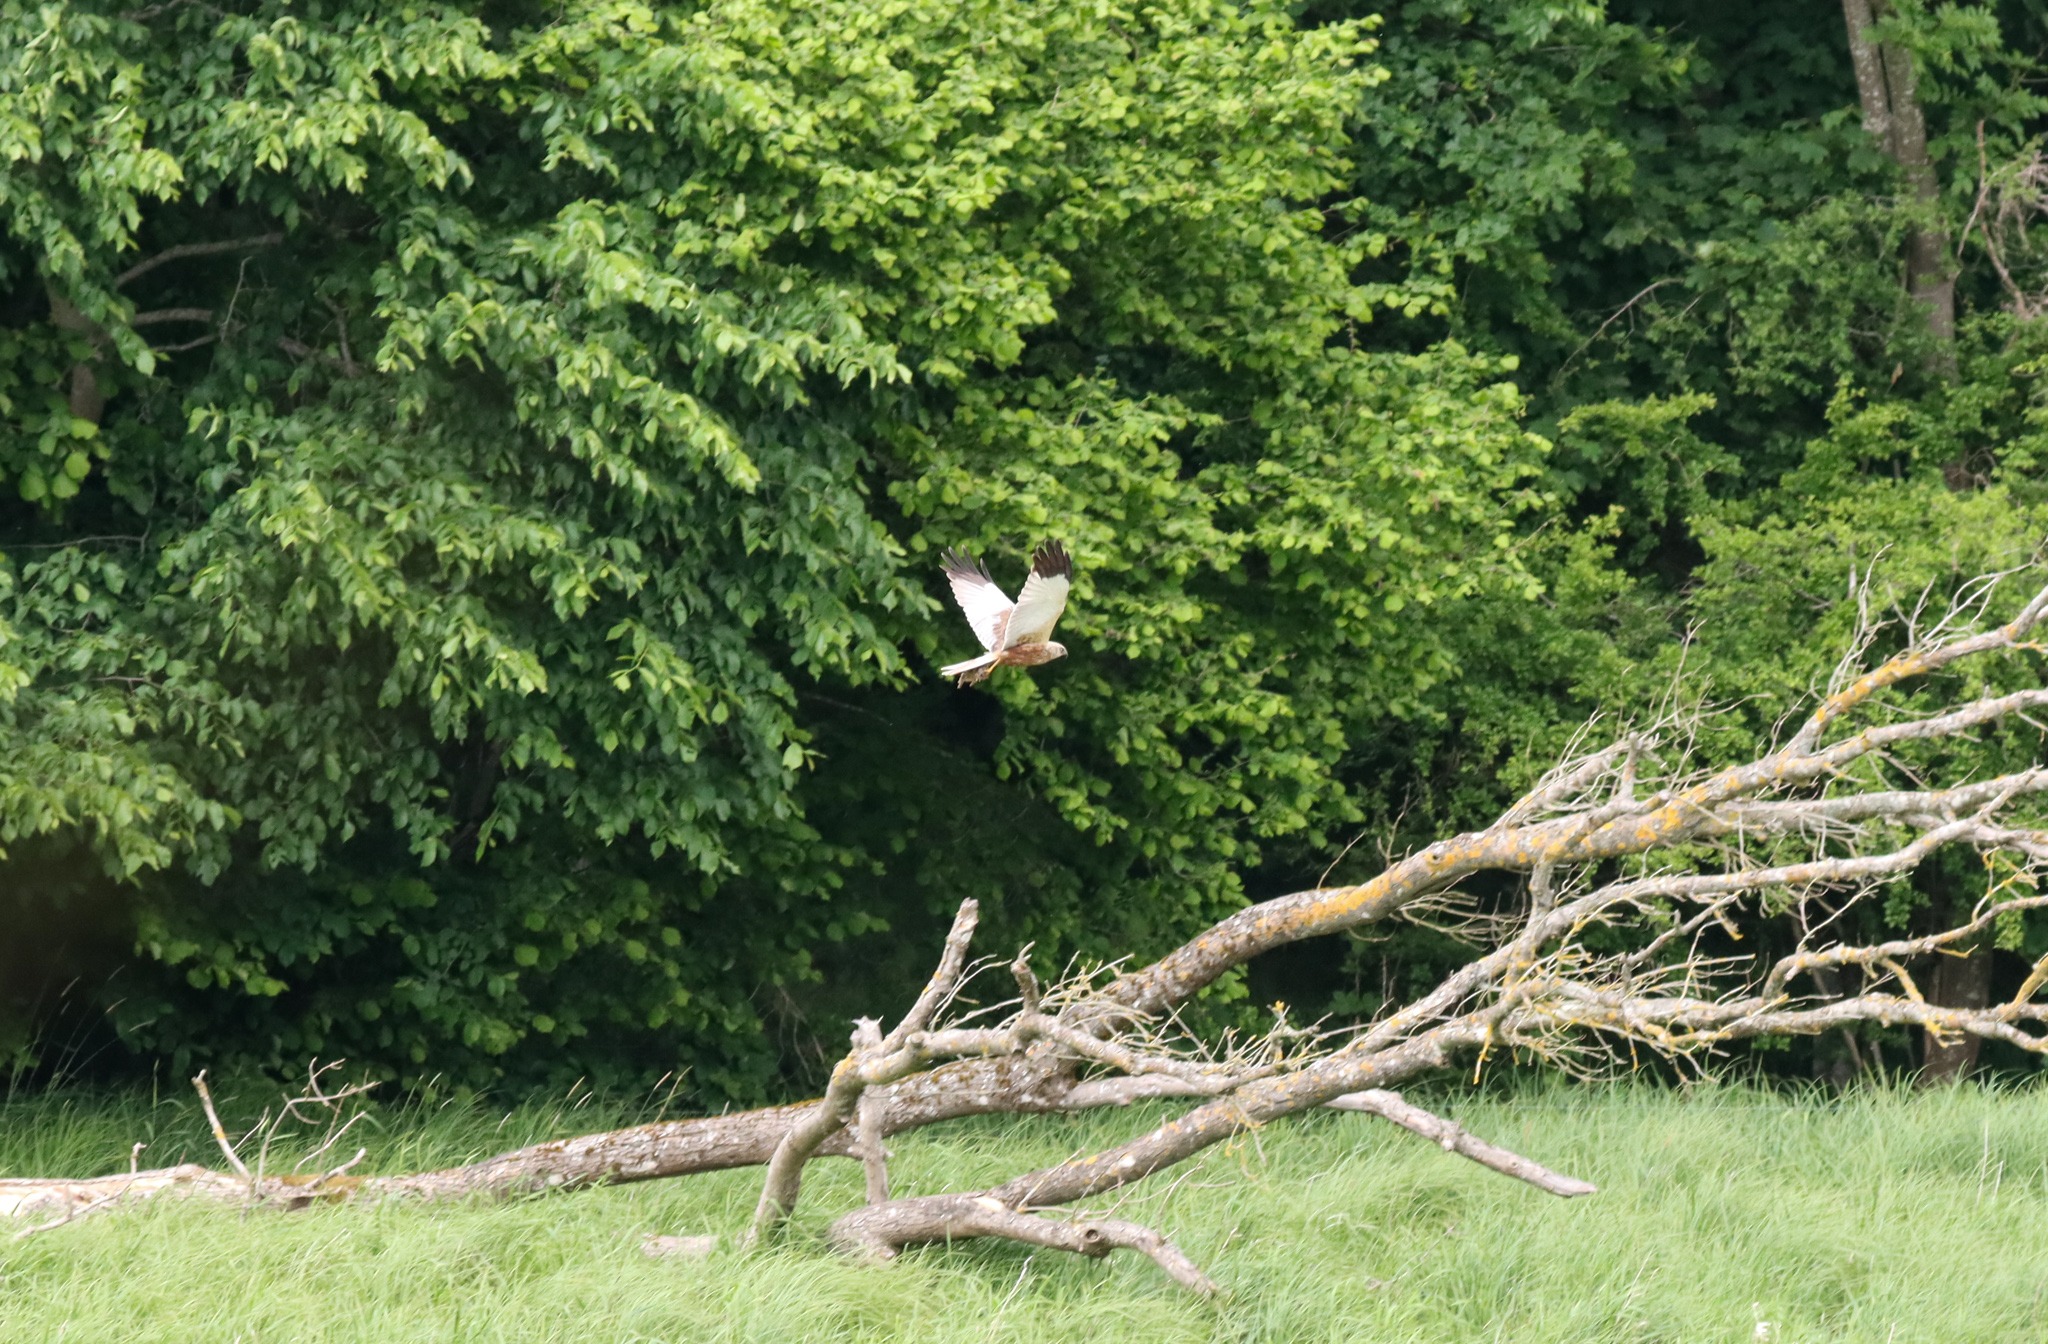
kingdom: Animalia
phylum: Chordata
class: Aves
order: Accipitriformes
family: Accipitridae
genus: Circus
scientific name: Circus aeruginosus
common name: Rørhøg
